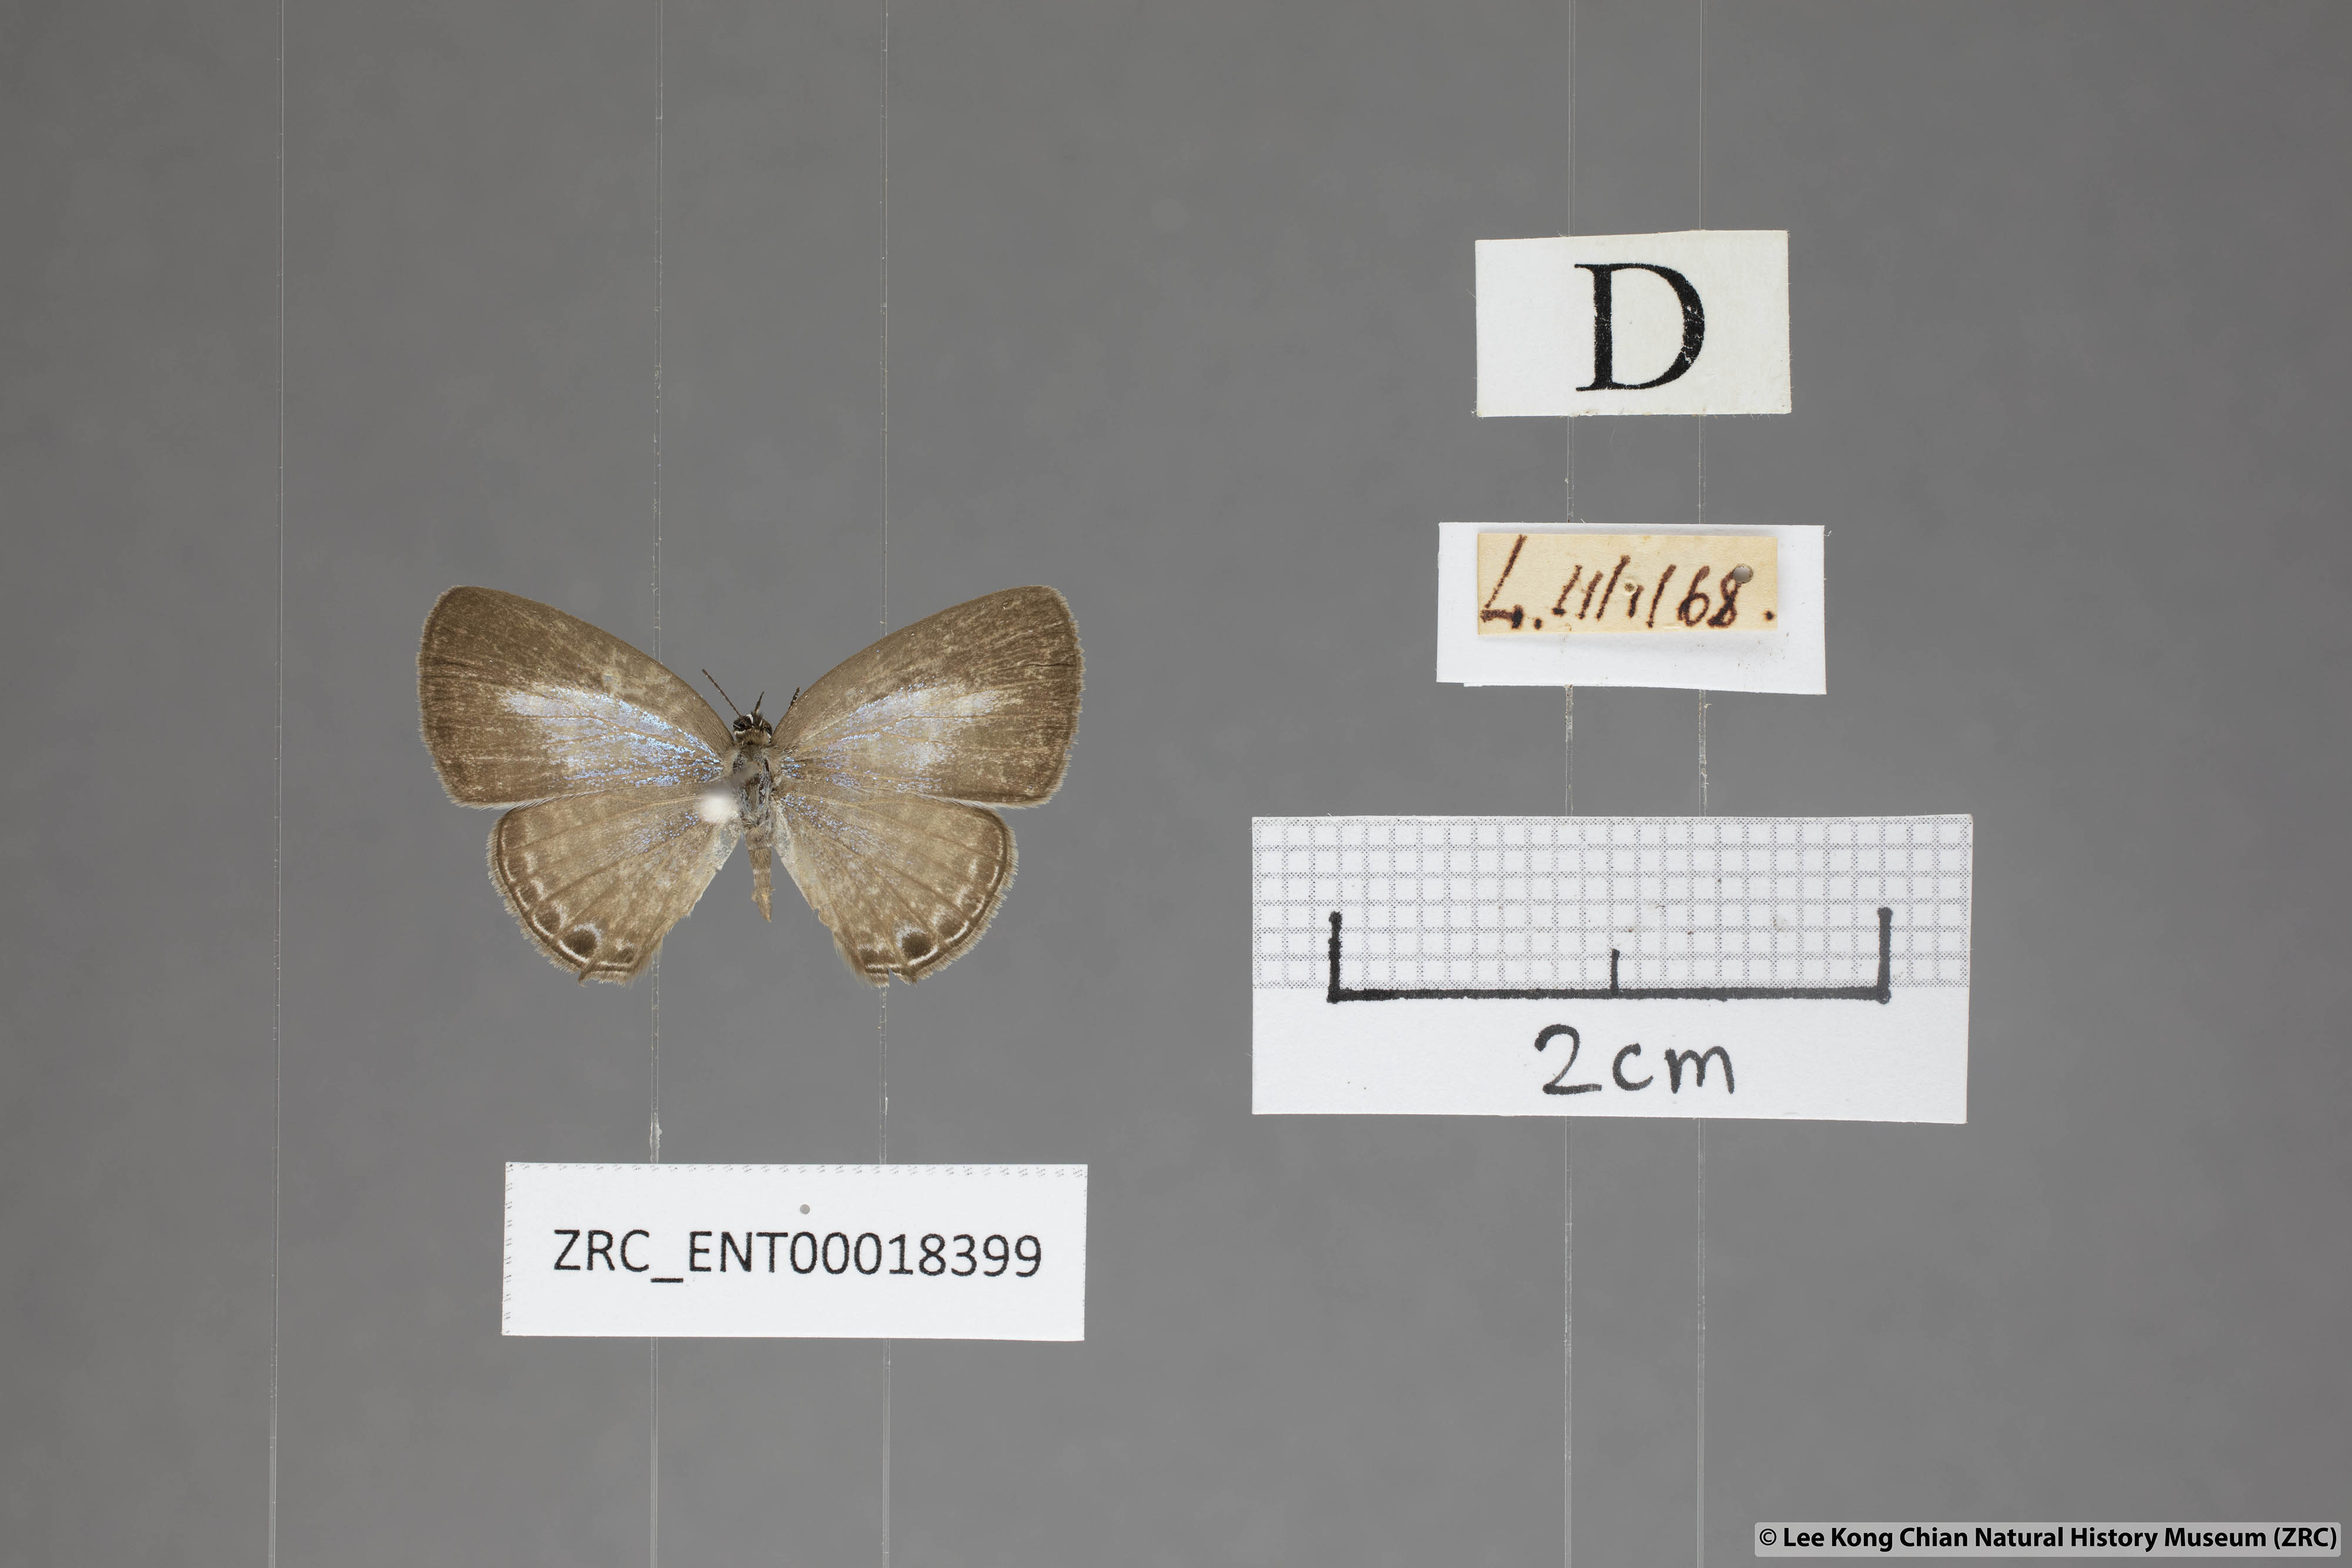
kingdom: Animalia
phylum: Arthropoda
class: Insecta
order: Lepidoptera
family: Lycaenidae
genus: Nacaduba
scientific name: Nacaduba kurava
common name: Transparent 6-line blue
